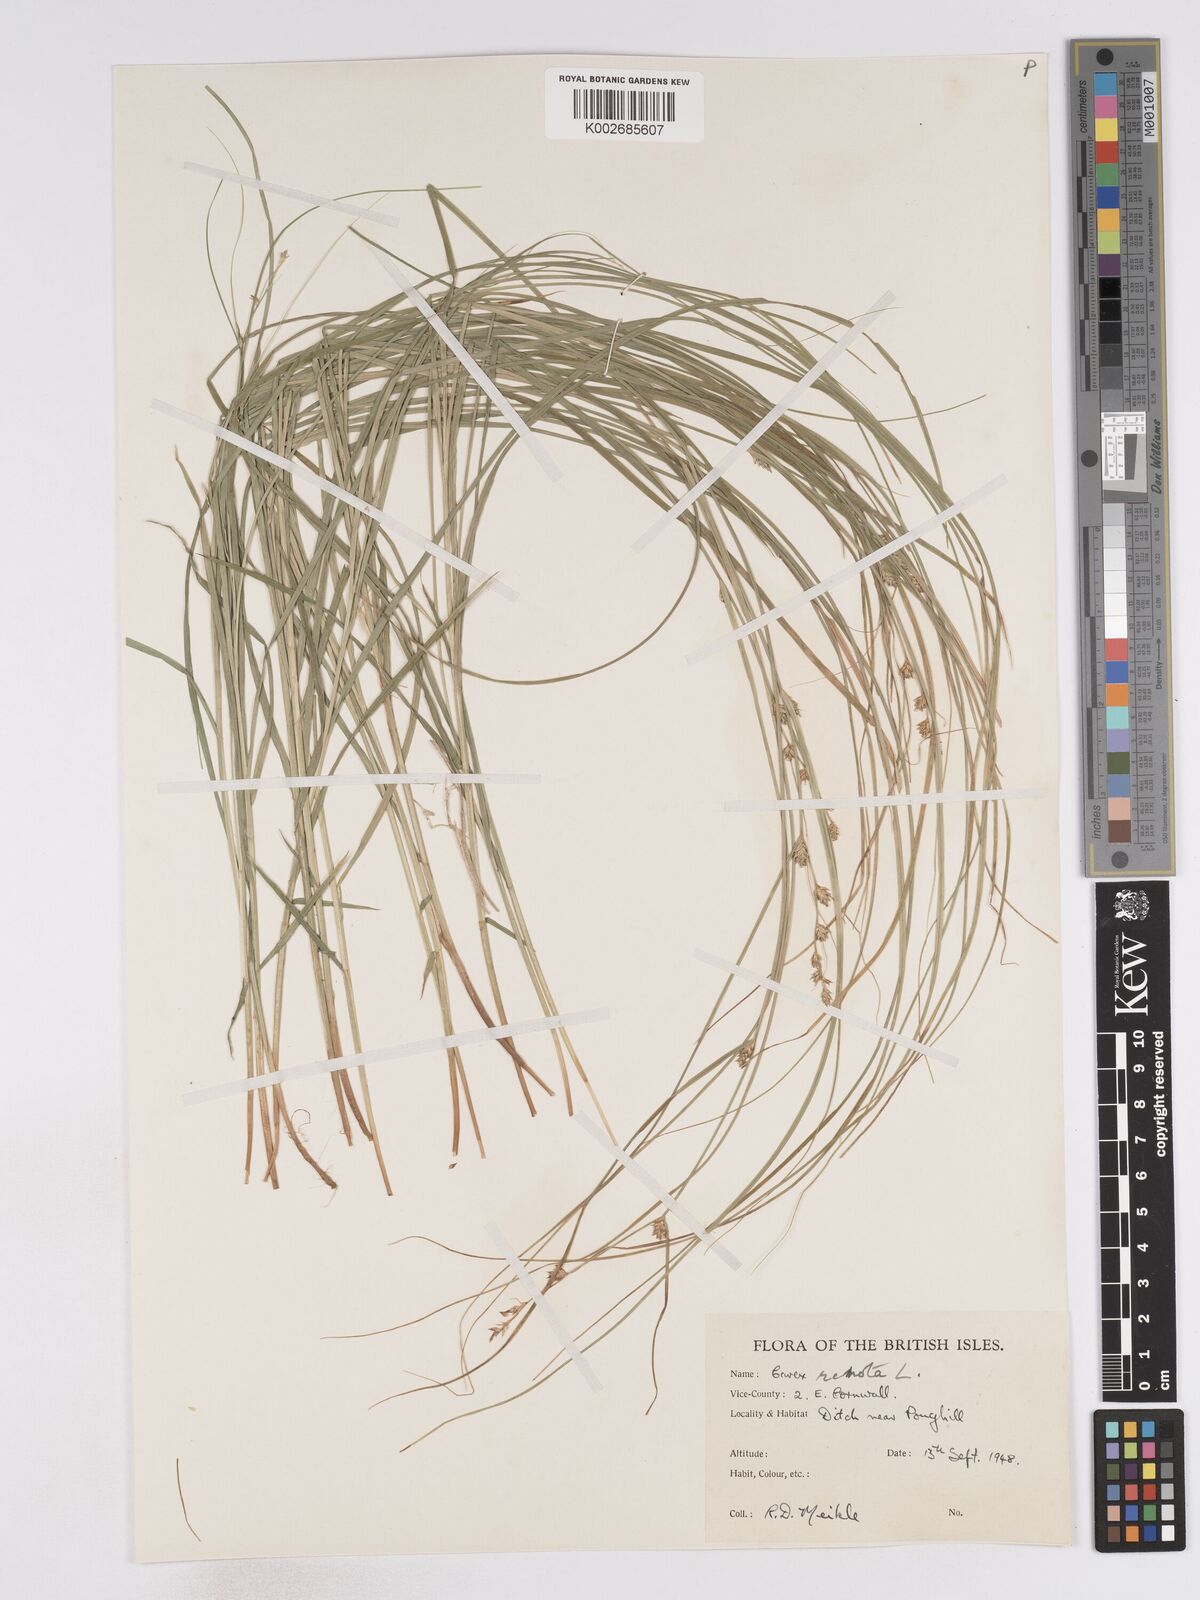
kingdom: Plantae
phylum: Tracheophyta
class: Liliopsida
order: Poales
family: Cyperaceae
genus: Carex
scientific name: Carex remota
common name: Remote sedge
